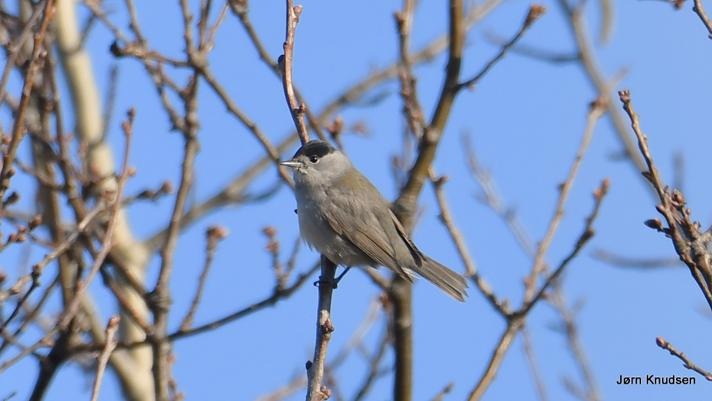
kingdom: Animalia
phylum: Chordata
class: Aves
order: Passeriformes
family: Sylviidae
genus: Sylvia
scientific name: Sylvia atricapilla
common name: Munk
